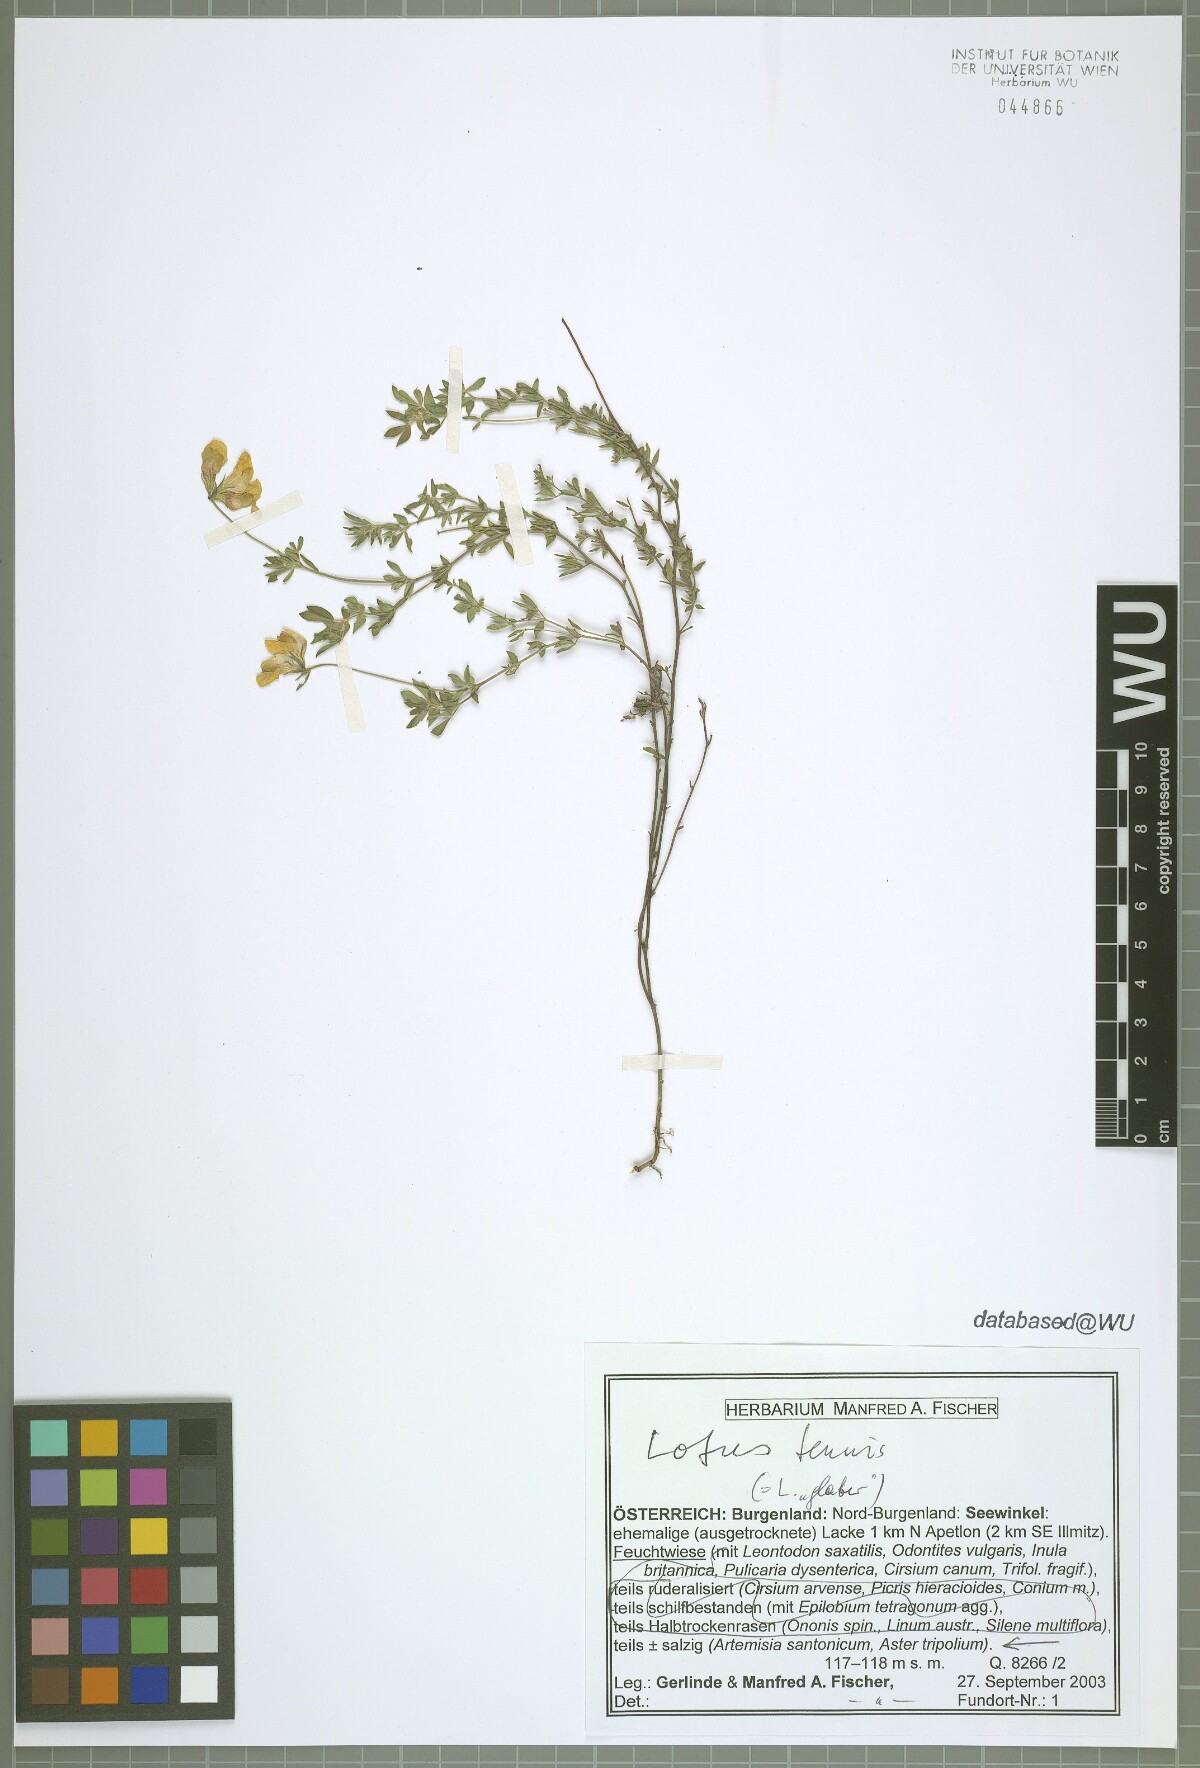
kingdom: Plantae
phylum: Tracheophyta
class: Magnoliopsida
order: Fabales
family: Fabaceae
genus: Lotus
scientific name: Lotus tenuis
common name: Narrow-leaved bird's-foot-trefoil
